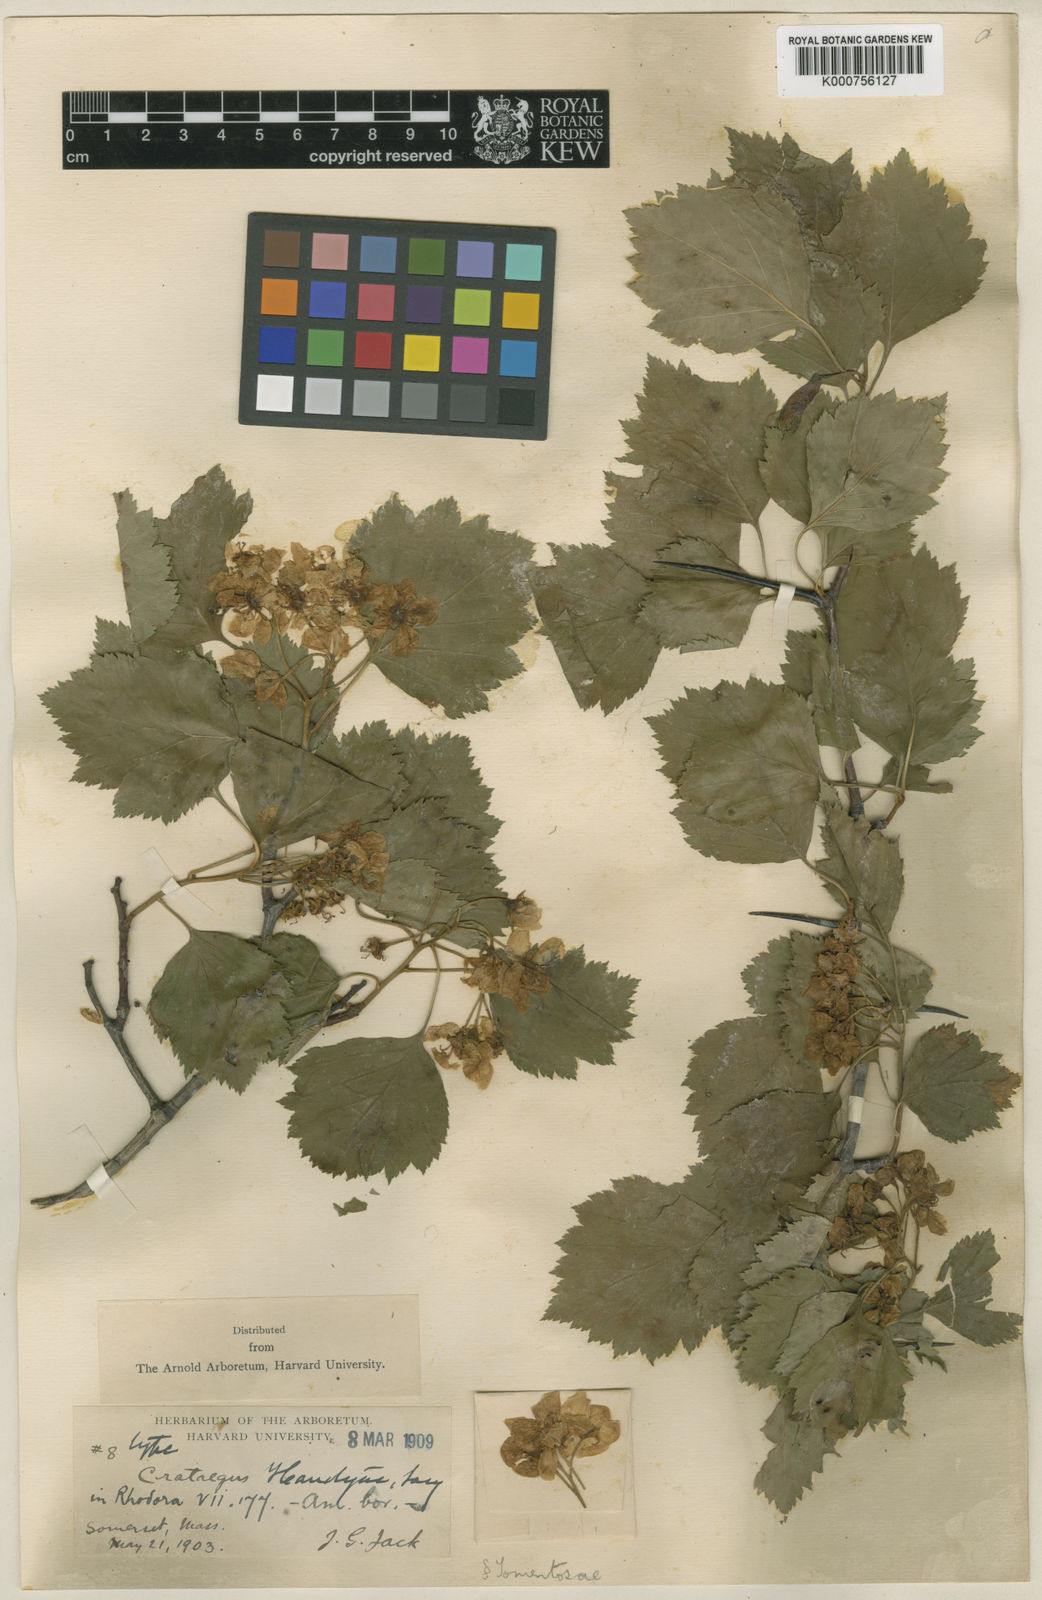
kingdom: Plantae
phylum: Tracheophyta
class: Magnoliopsida
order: Rosales
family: Rosaceae
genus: Crataegus
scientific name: Crataegus handyae
